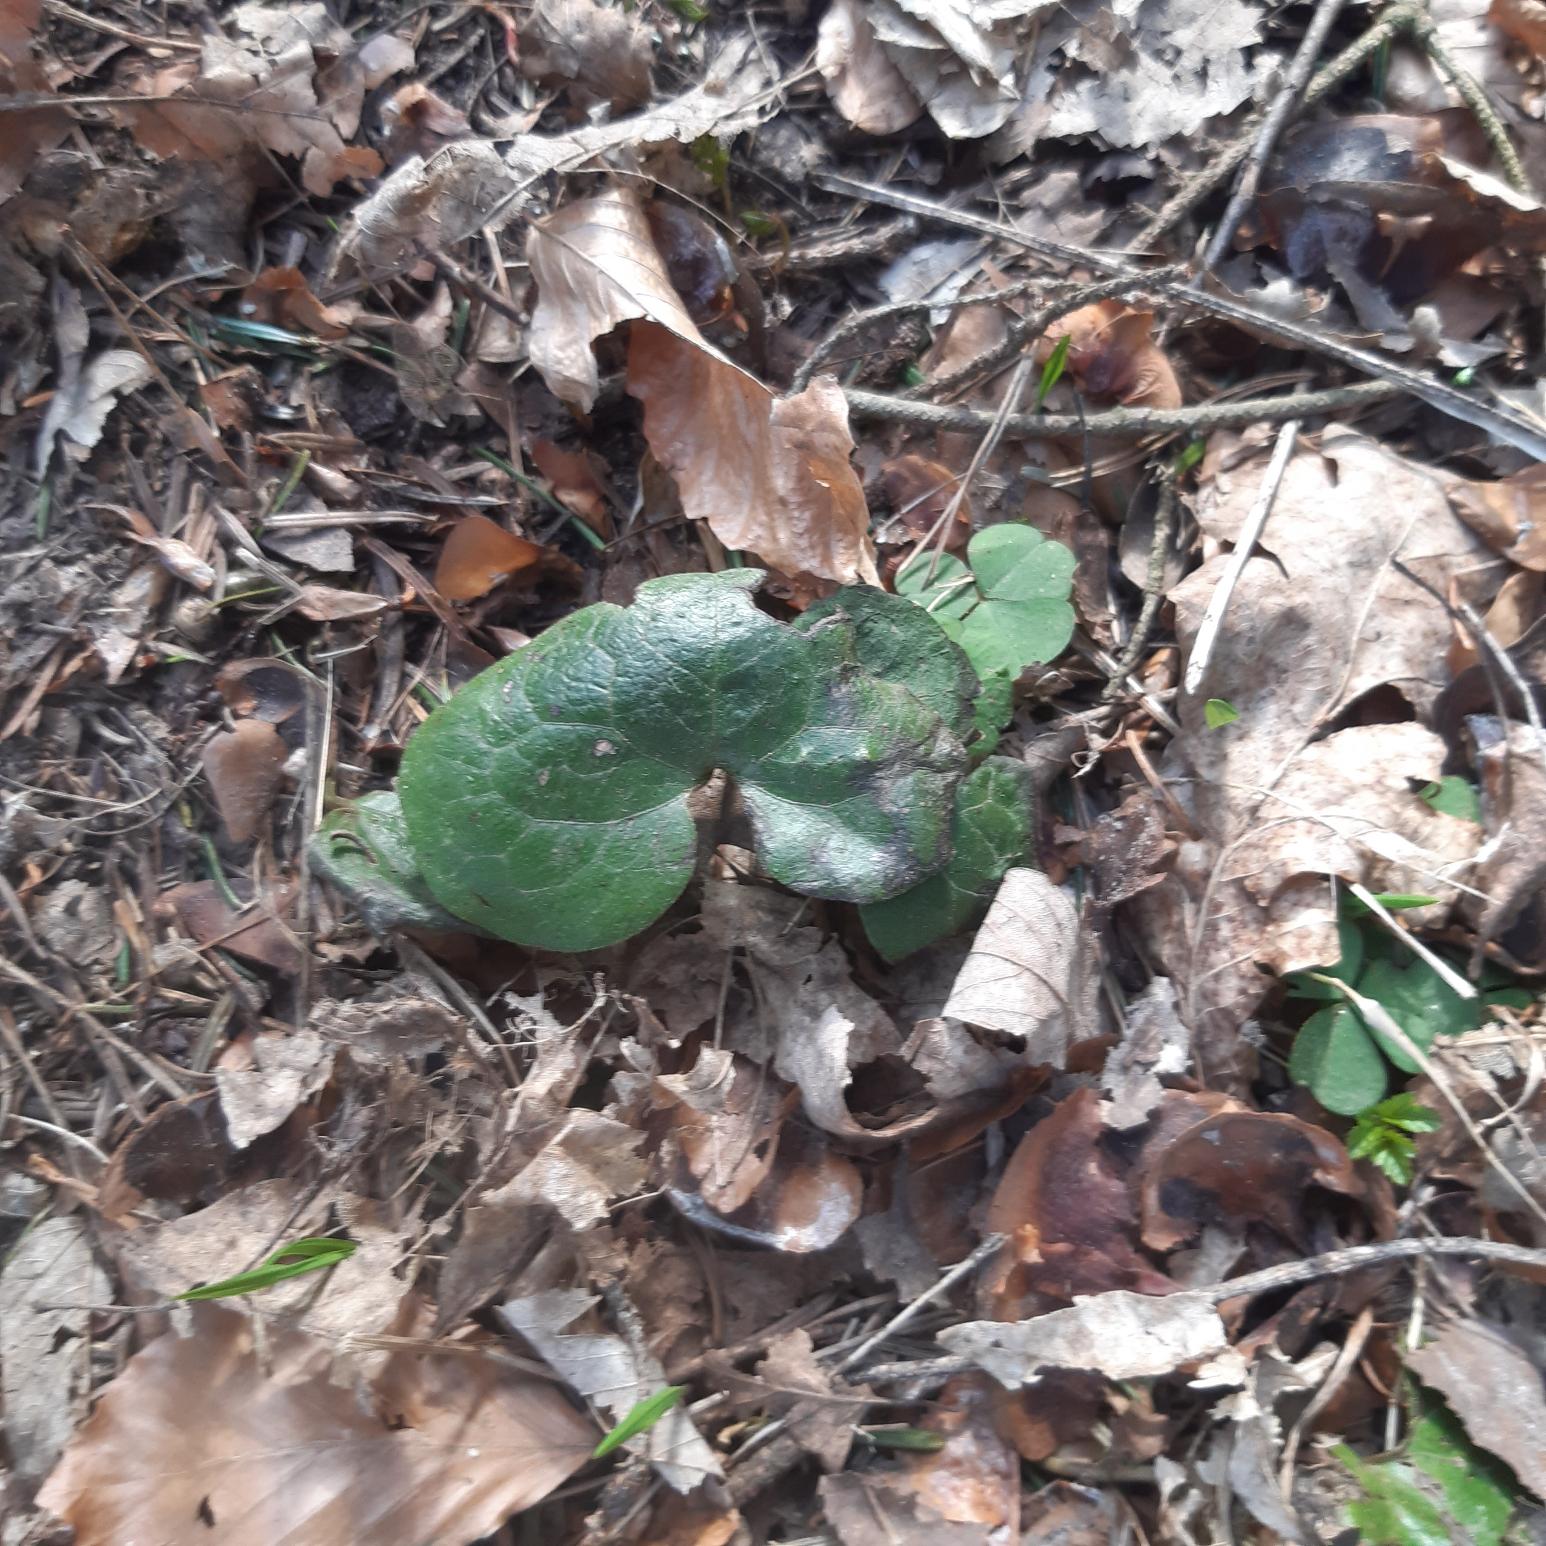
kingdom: Plantae
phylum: Tracheophyta
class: Magnoliopsida
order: Piperales
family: Aristolochiaceae
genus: Asarum
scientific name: Asarum europaeum
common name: Hasselurt
